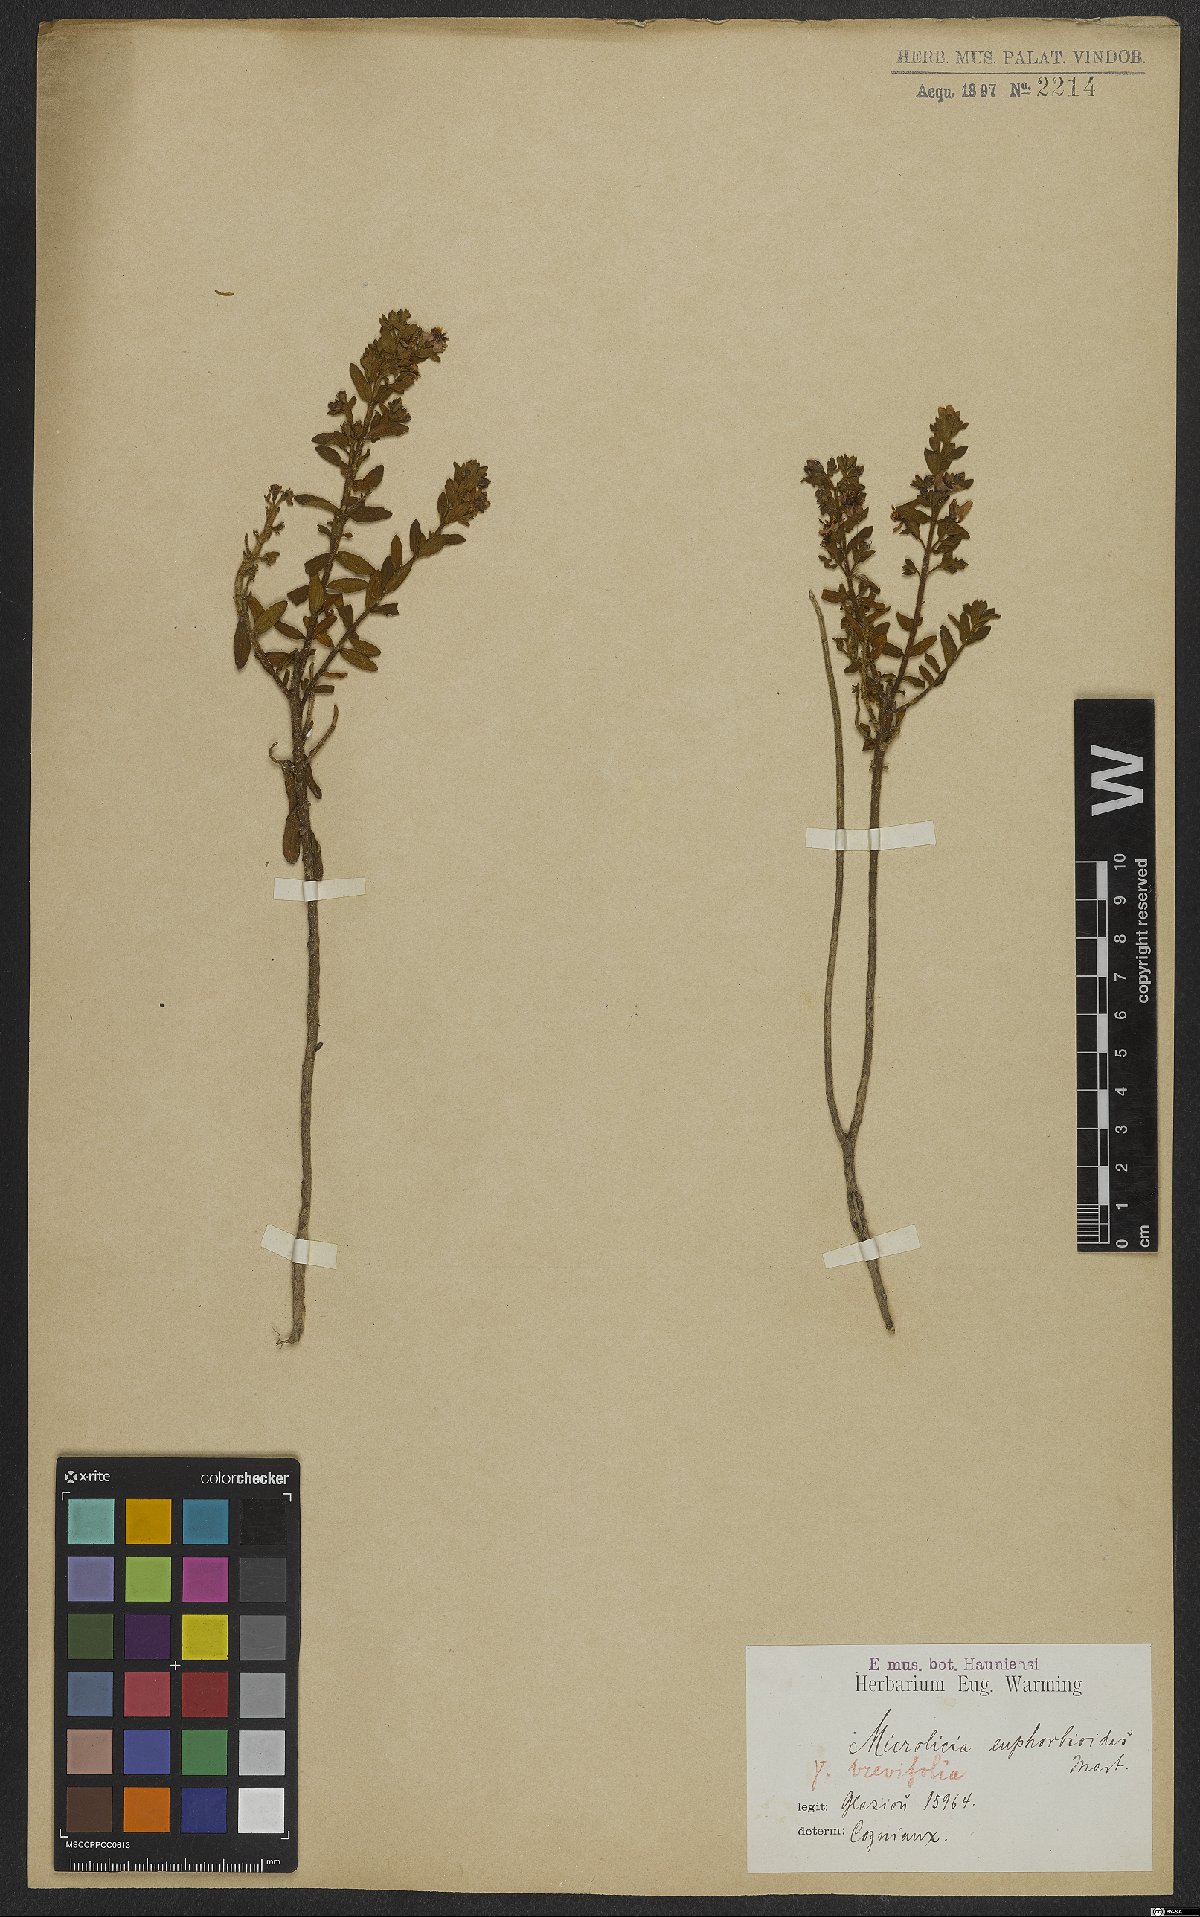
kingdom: Plantae
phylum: Tracheophyta
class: Magnoliopsida
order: Myrtales
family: Melastomataceae
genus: Microlicia
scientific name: Microlicia euphorbioides
